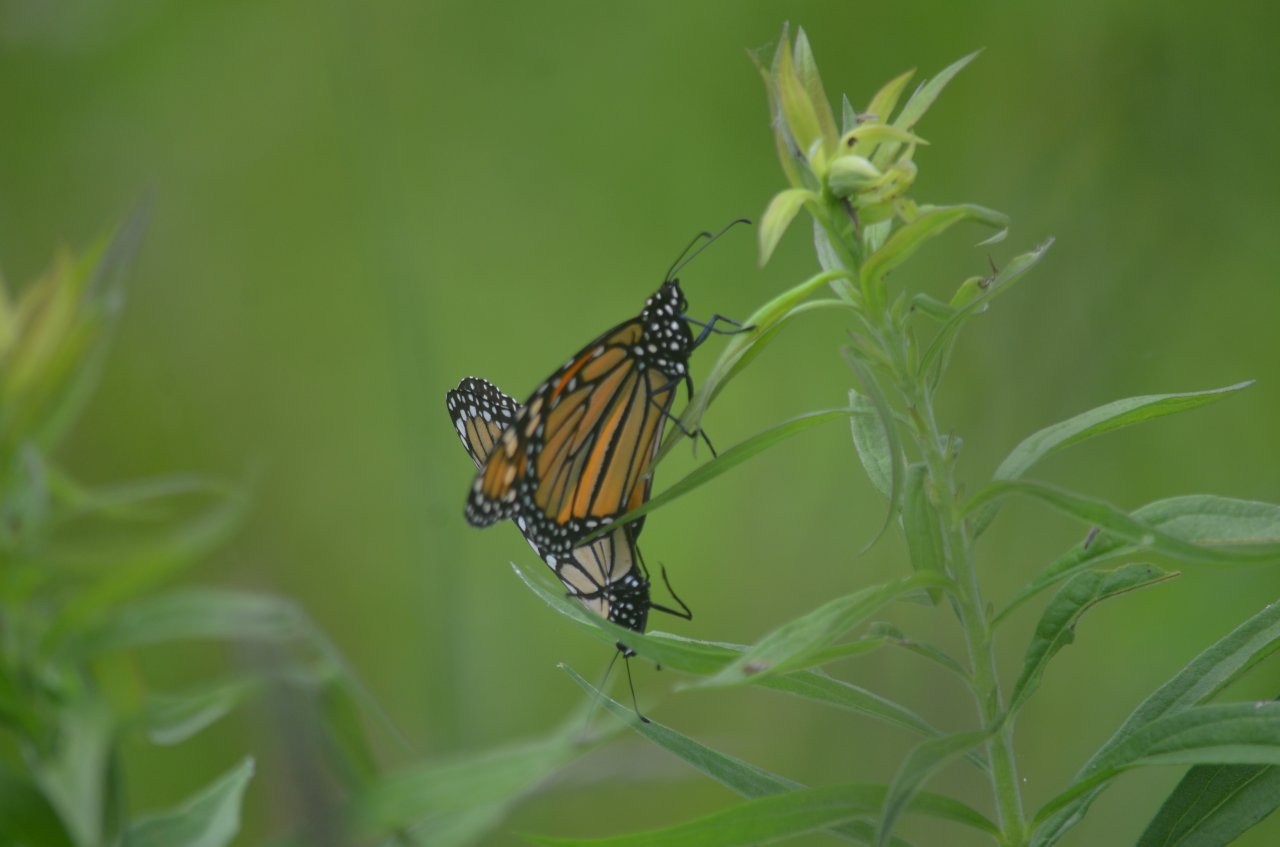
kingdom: Animalia
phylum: Arthropoda
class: Insecta
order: Lepidoptera
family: Nymphalidae
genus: Danaus
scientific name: Danaus plexippus
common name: Monarch
